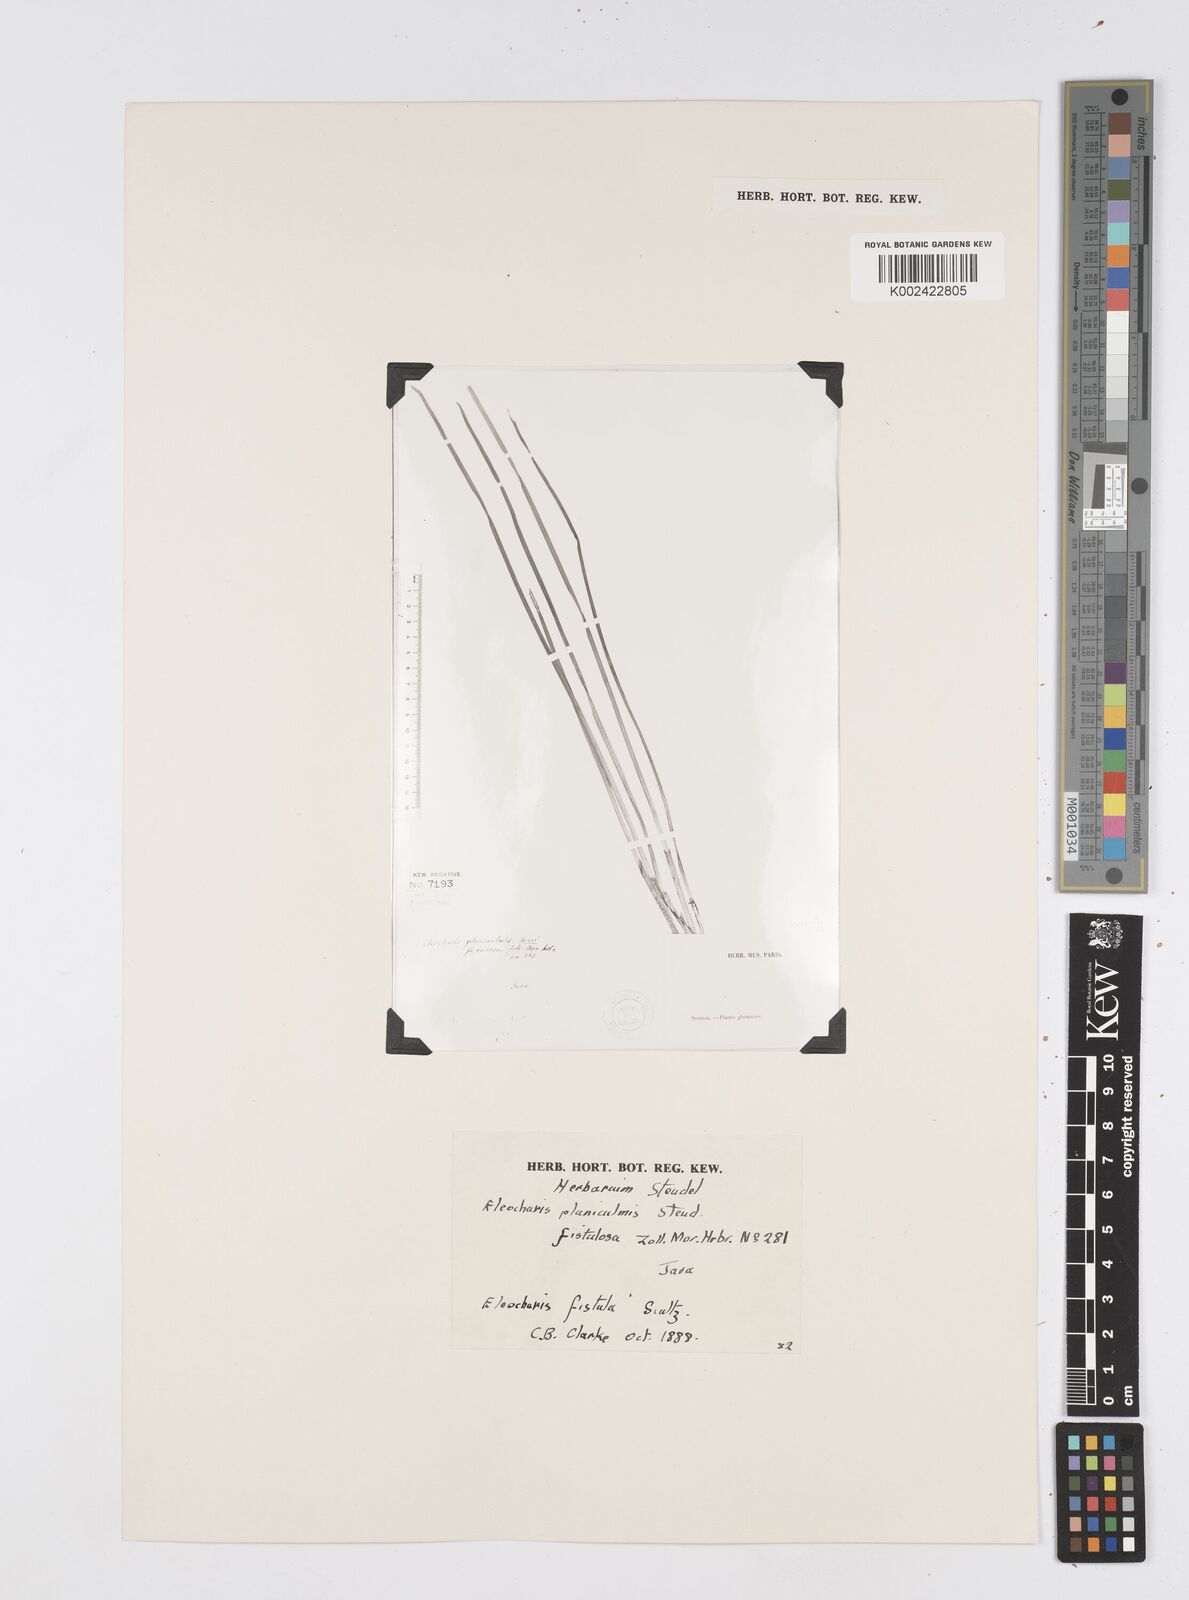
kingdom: Plantae
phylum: Tracheophyta
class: Liliopsida
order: Poales
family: Cyperaceae
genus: Eleocharis
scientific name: Eleocharis acutangula
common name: Acute spikerush
